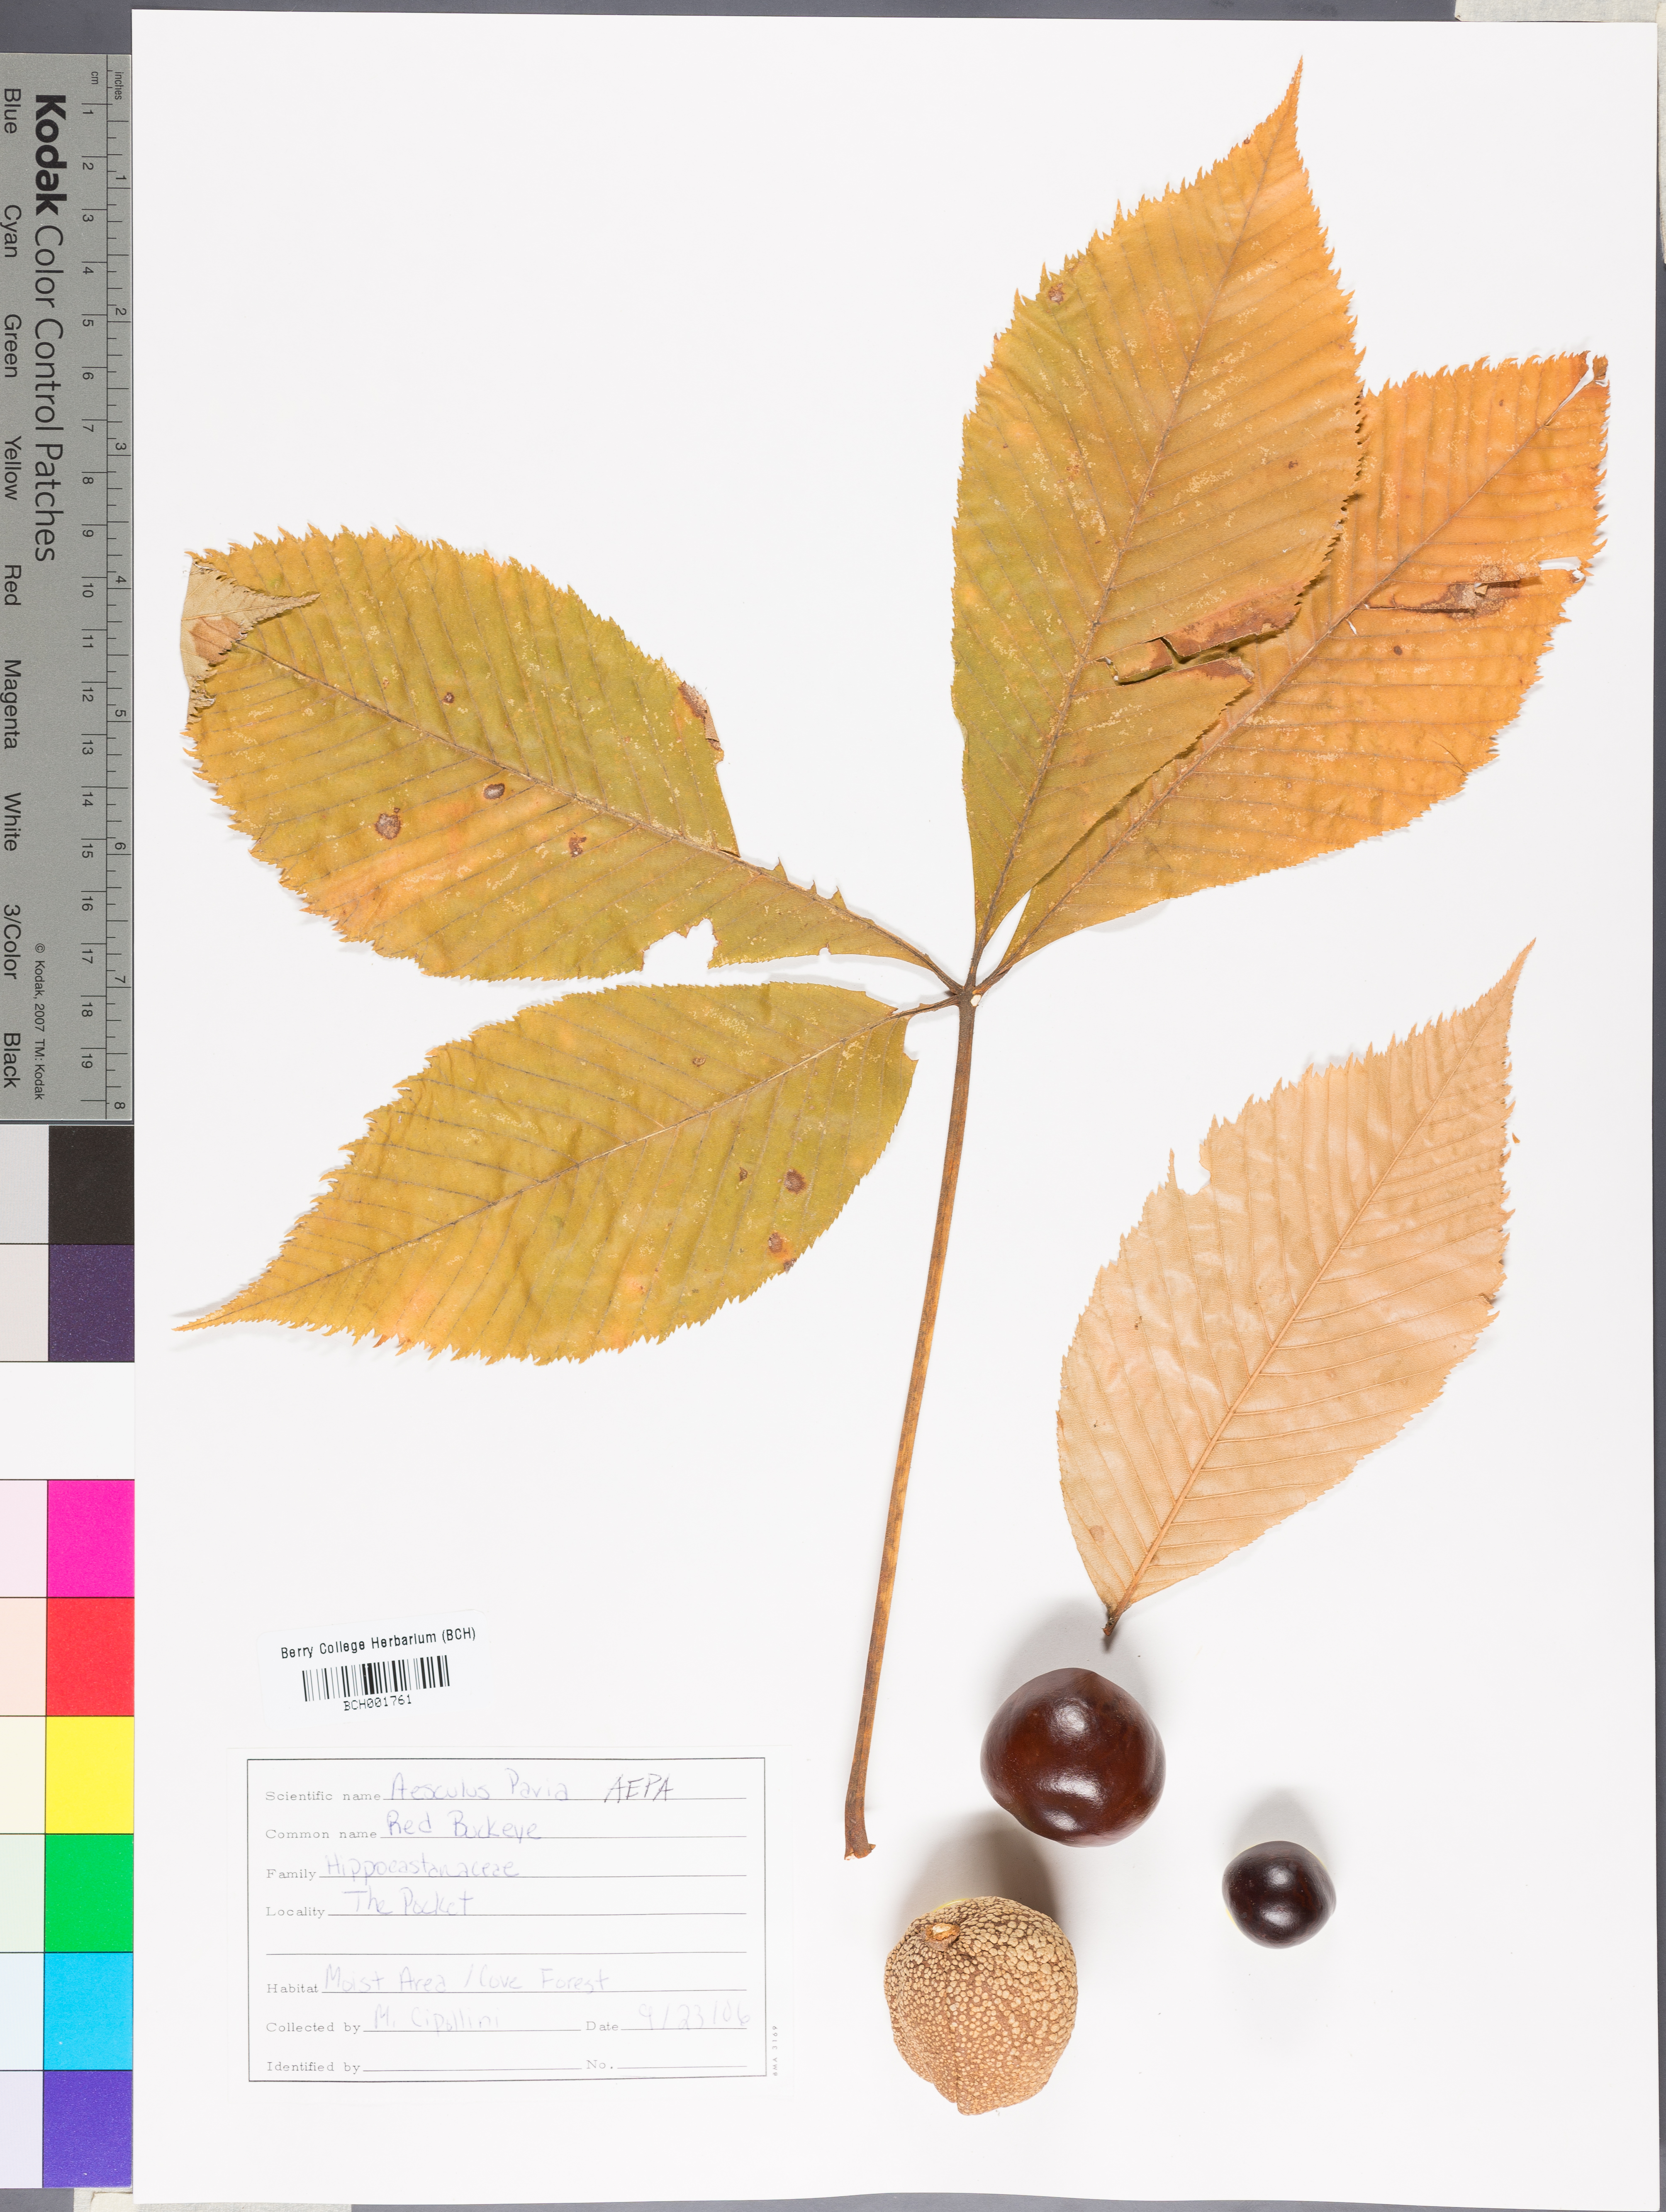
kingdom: Plantae
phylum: Tracheophyta
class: Magnoliopsida
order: Sapindales
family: Sapindaceae
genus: Aesculus
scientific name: Aesculus pavia
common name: Red buckeye
